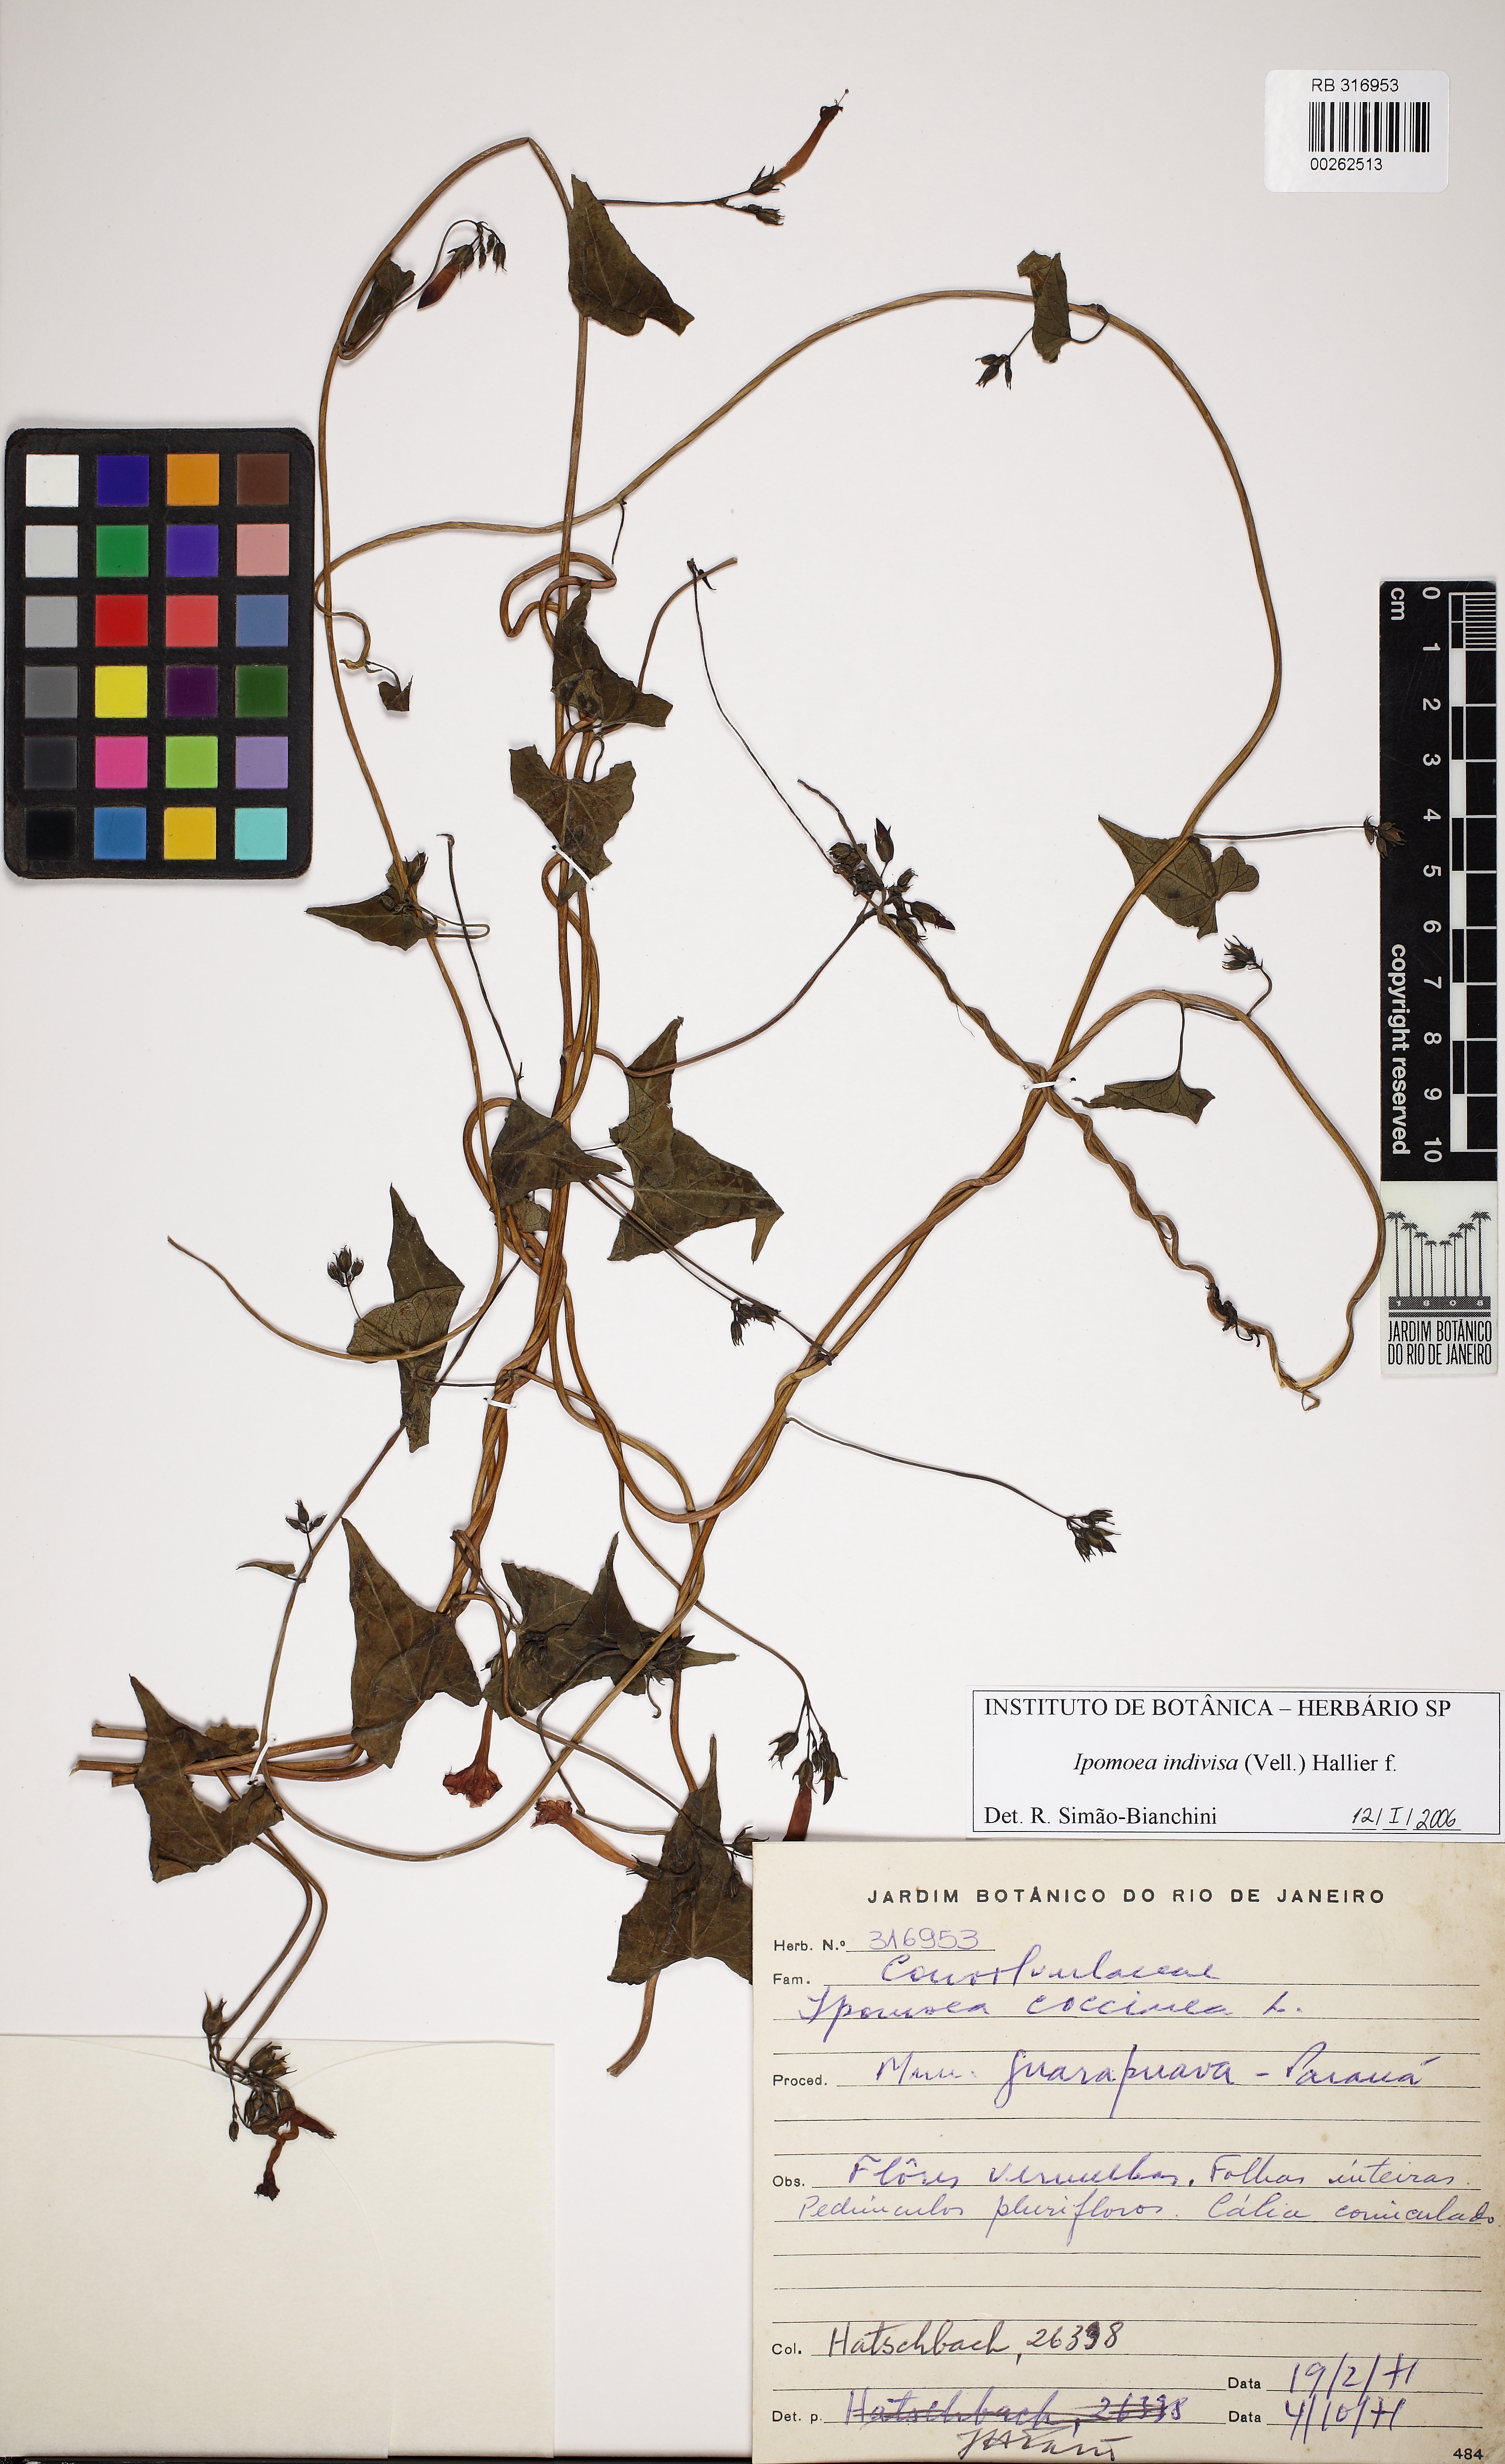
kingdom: Plantae
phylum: Tracheophyta
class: Magnoliopsida
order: Solanales
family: Convolvulaceae
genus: Ipomoea
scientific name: Ipomoea indivisa
